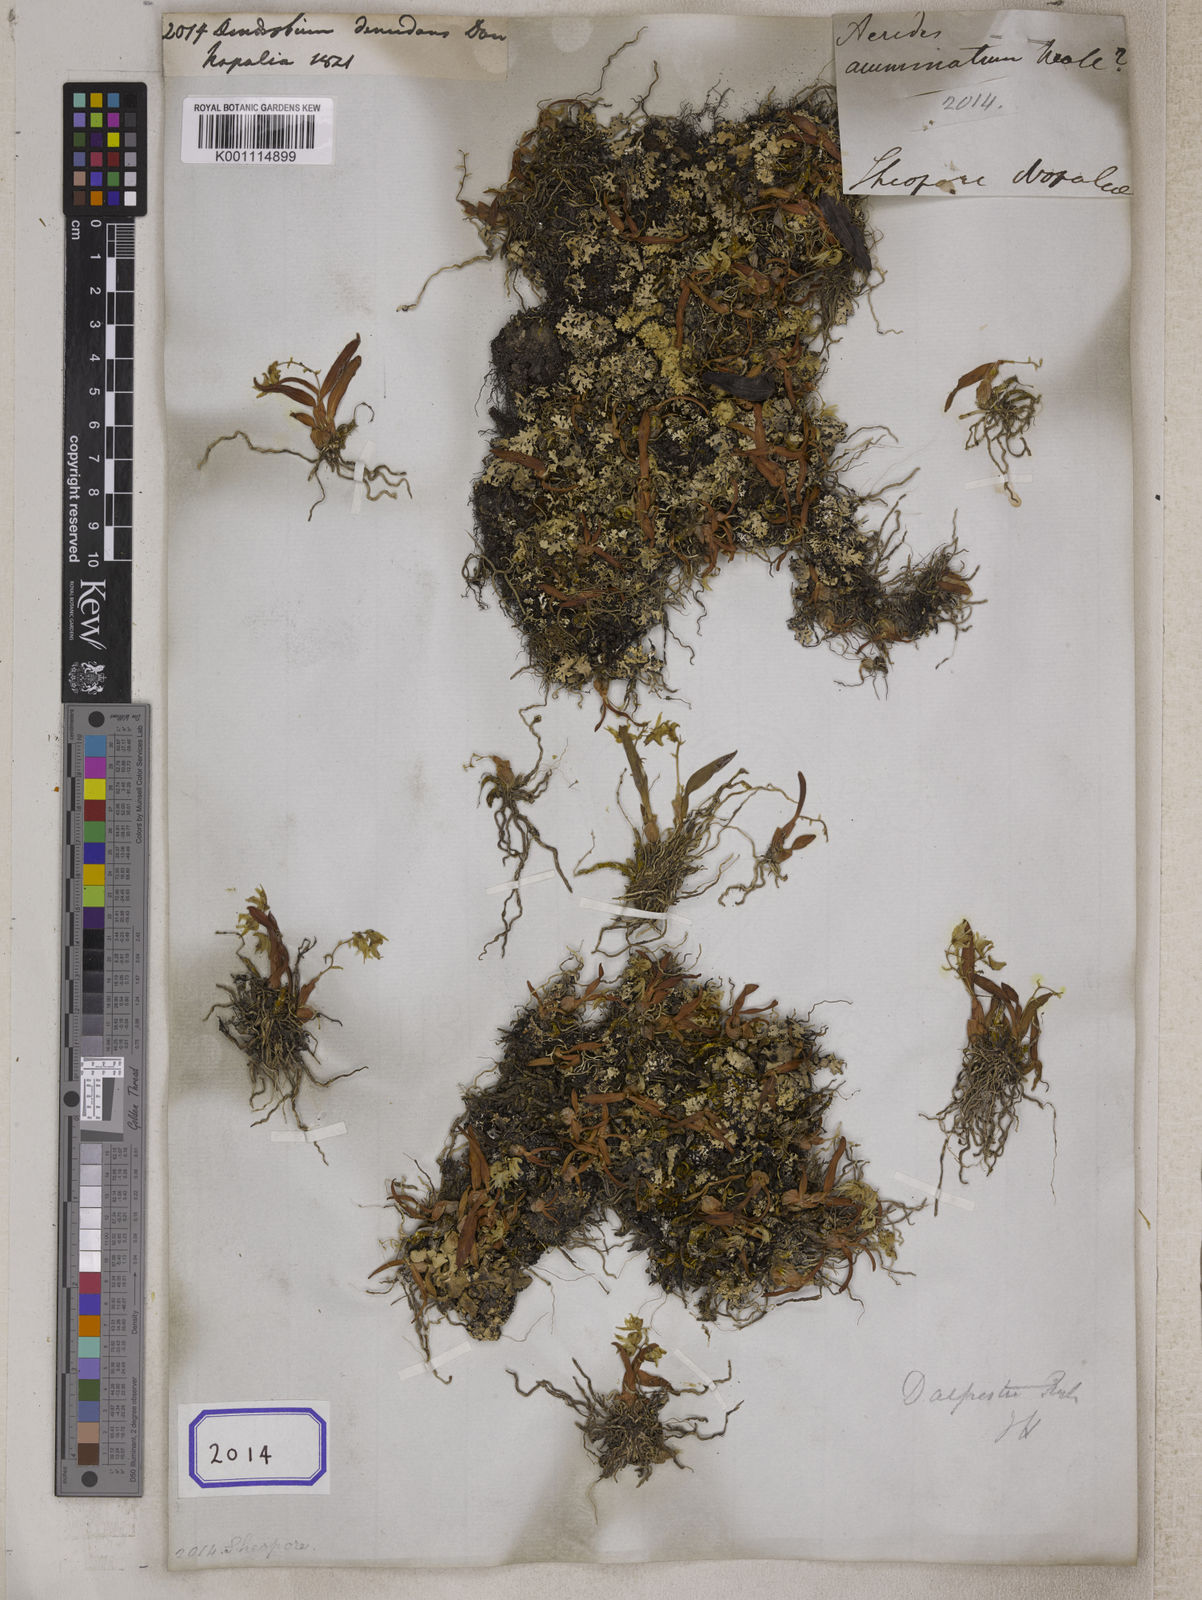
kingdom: Plantae
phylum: Tracheophyta
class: Liliopsida
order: Asparagales
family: Orchidaceae
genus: Dendrobium
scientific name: Dendrobium denudans
